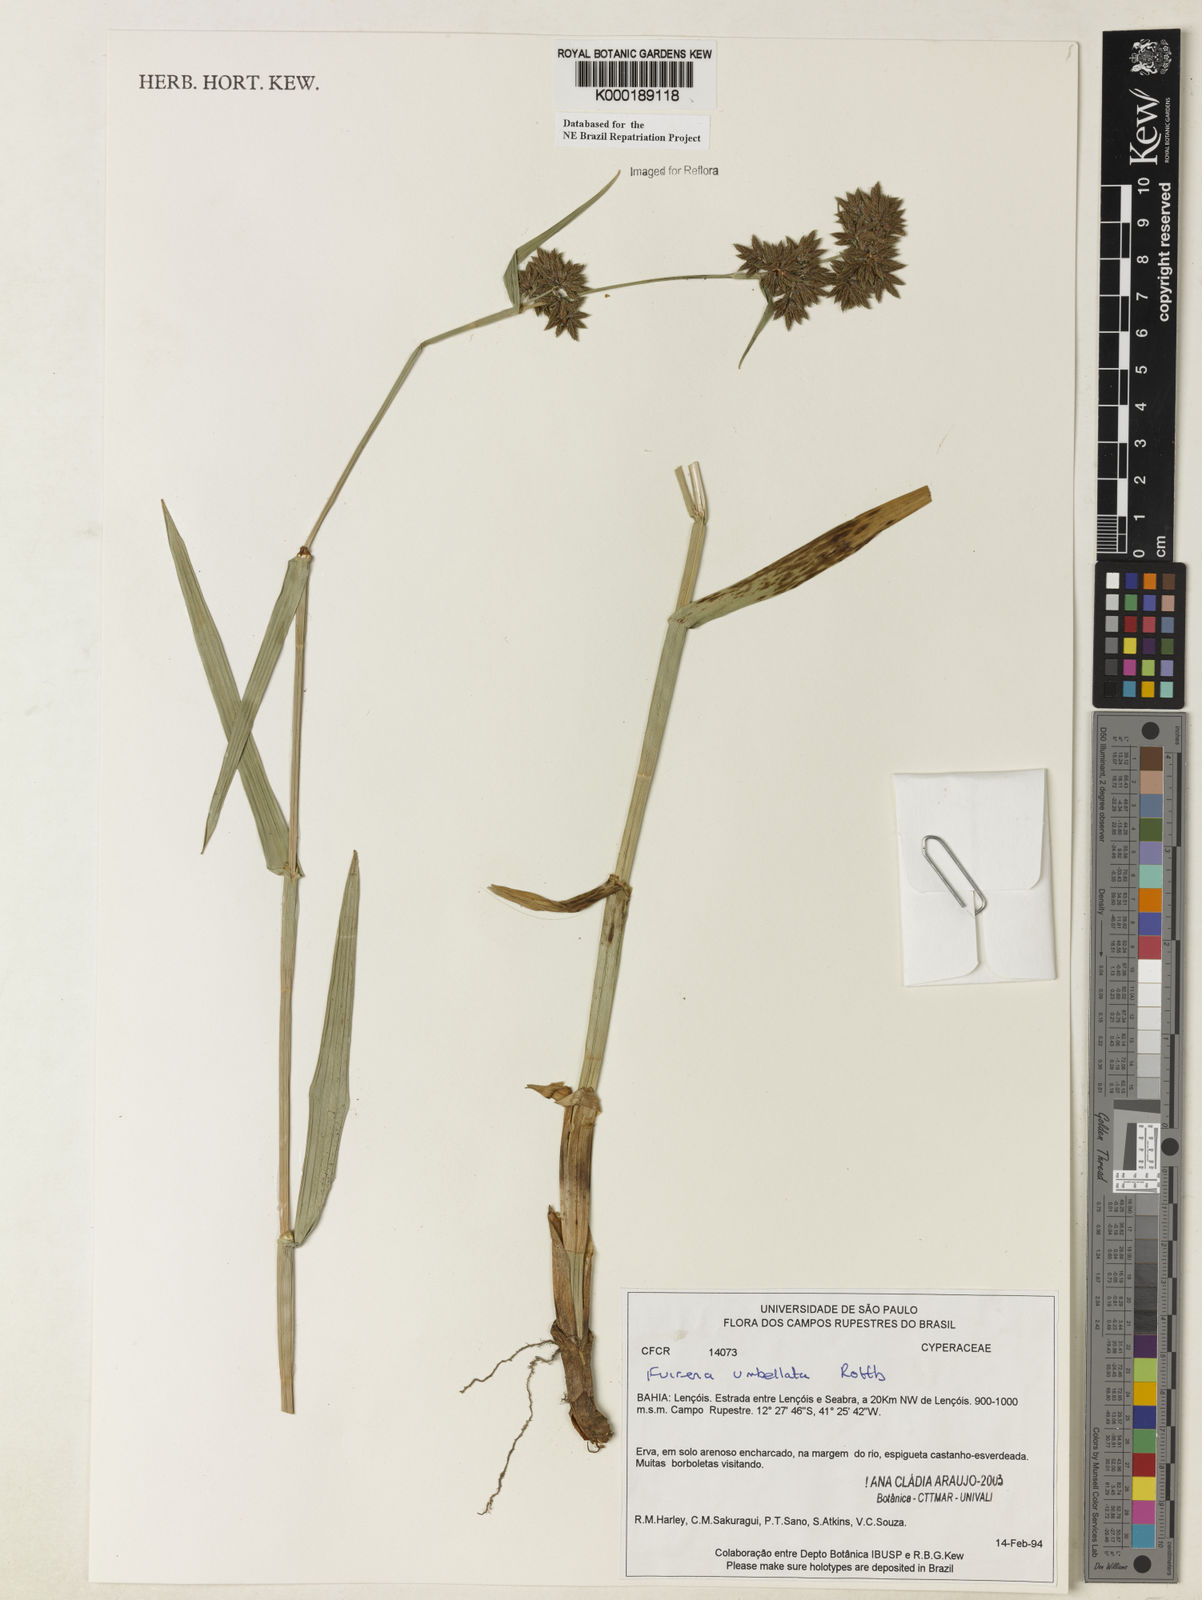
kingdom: Plantae
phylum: Tracheophyta
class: Liliopsida
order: Poales
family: Cyperaceae
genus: Fuirena
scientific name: Fuirena umbellata
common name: Yefen
